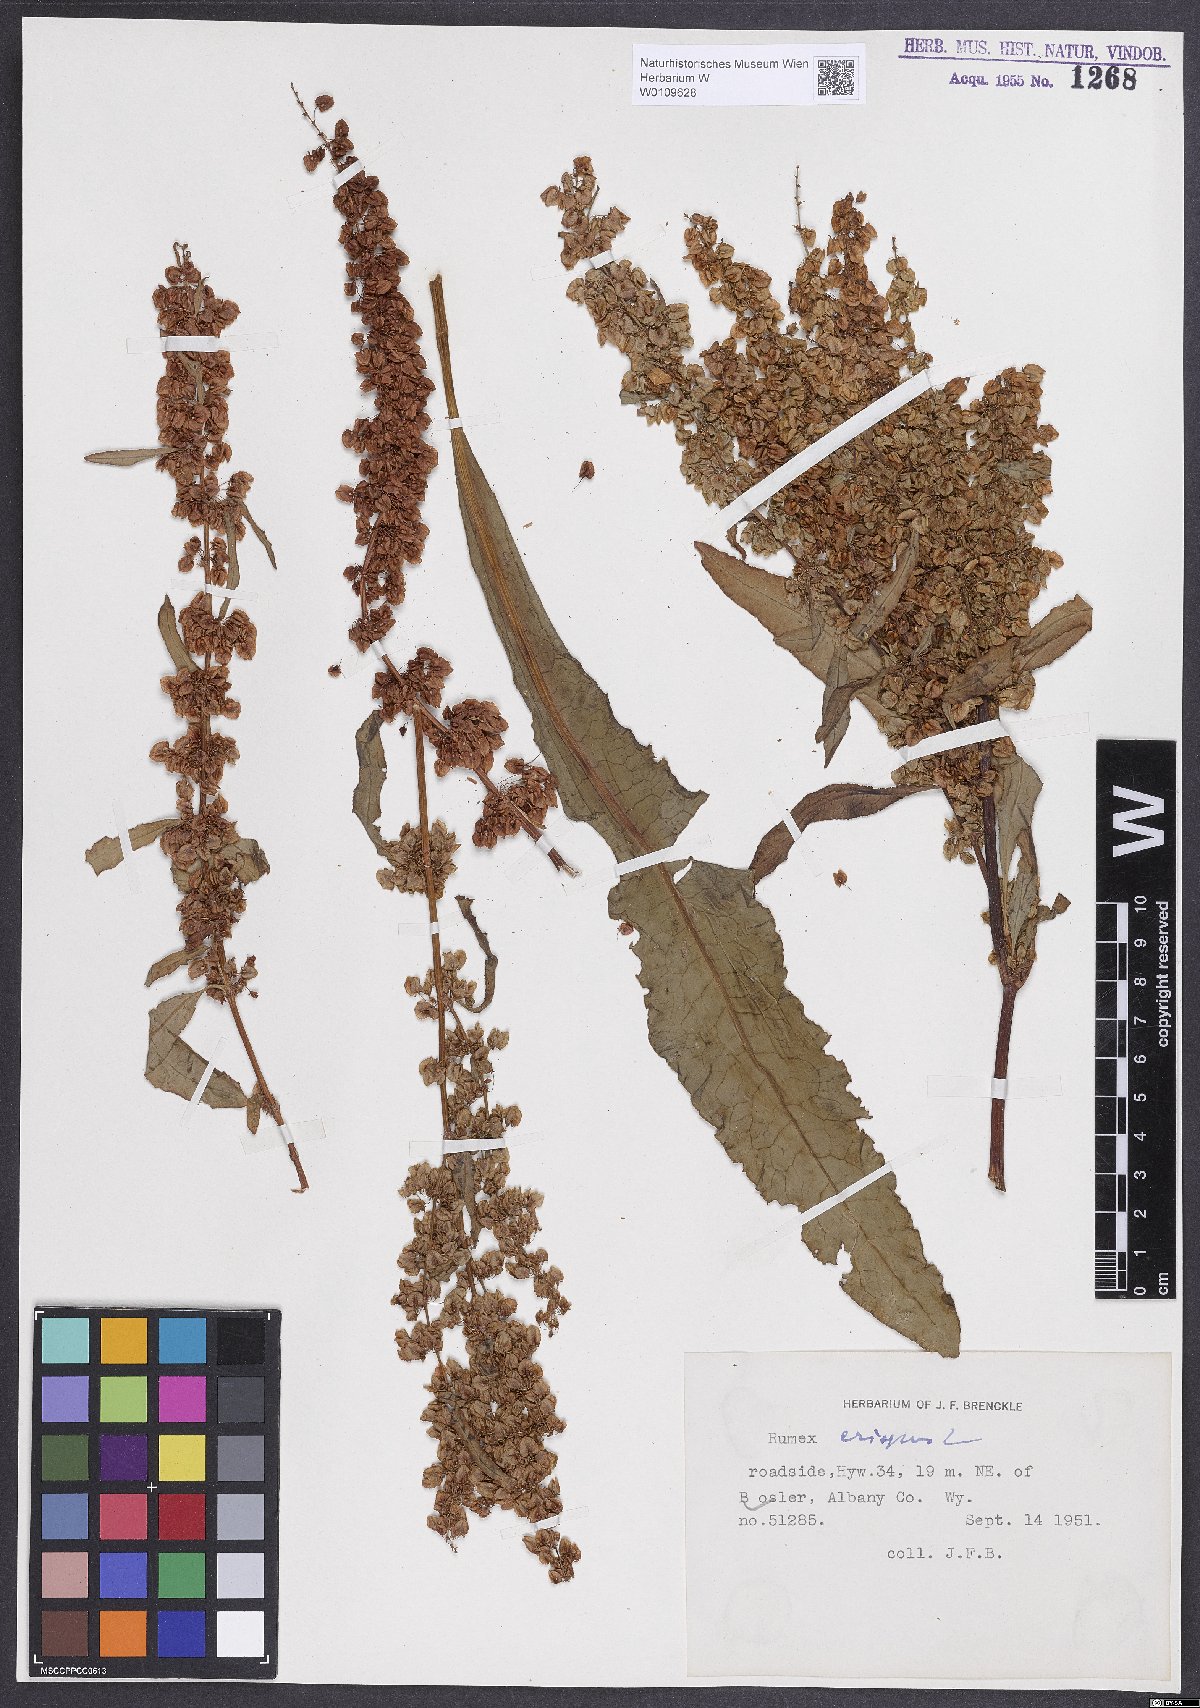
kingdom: Plantae
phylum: Tracheophyta
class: Magnoliopsida
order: Caryophyllales
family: Polygonaceae
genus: Rumex
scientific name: Rumex crispus
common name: Curled dock
